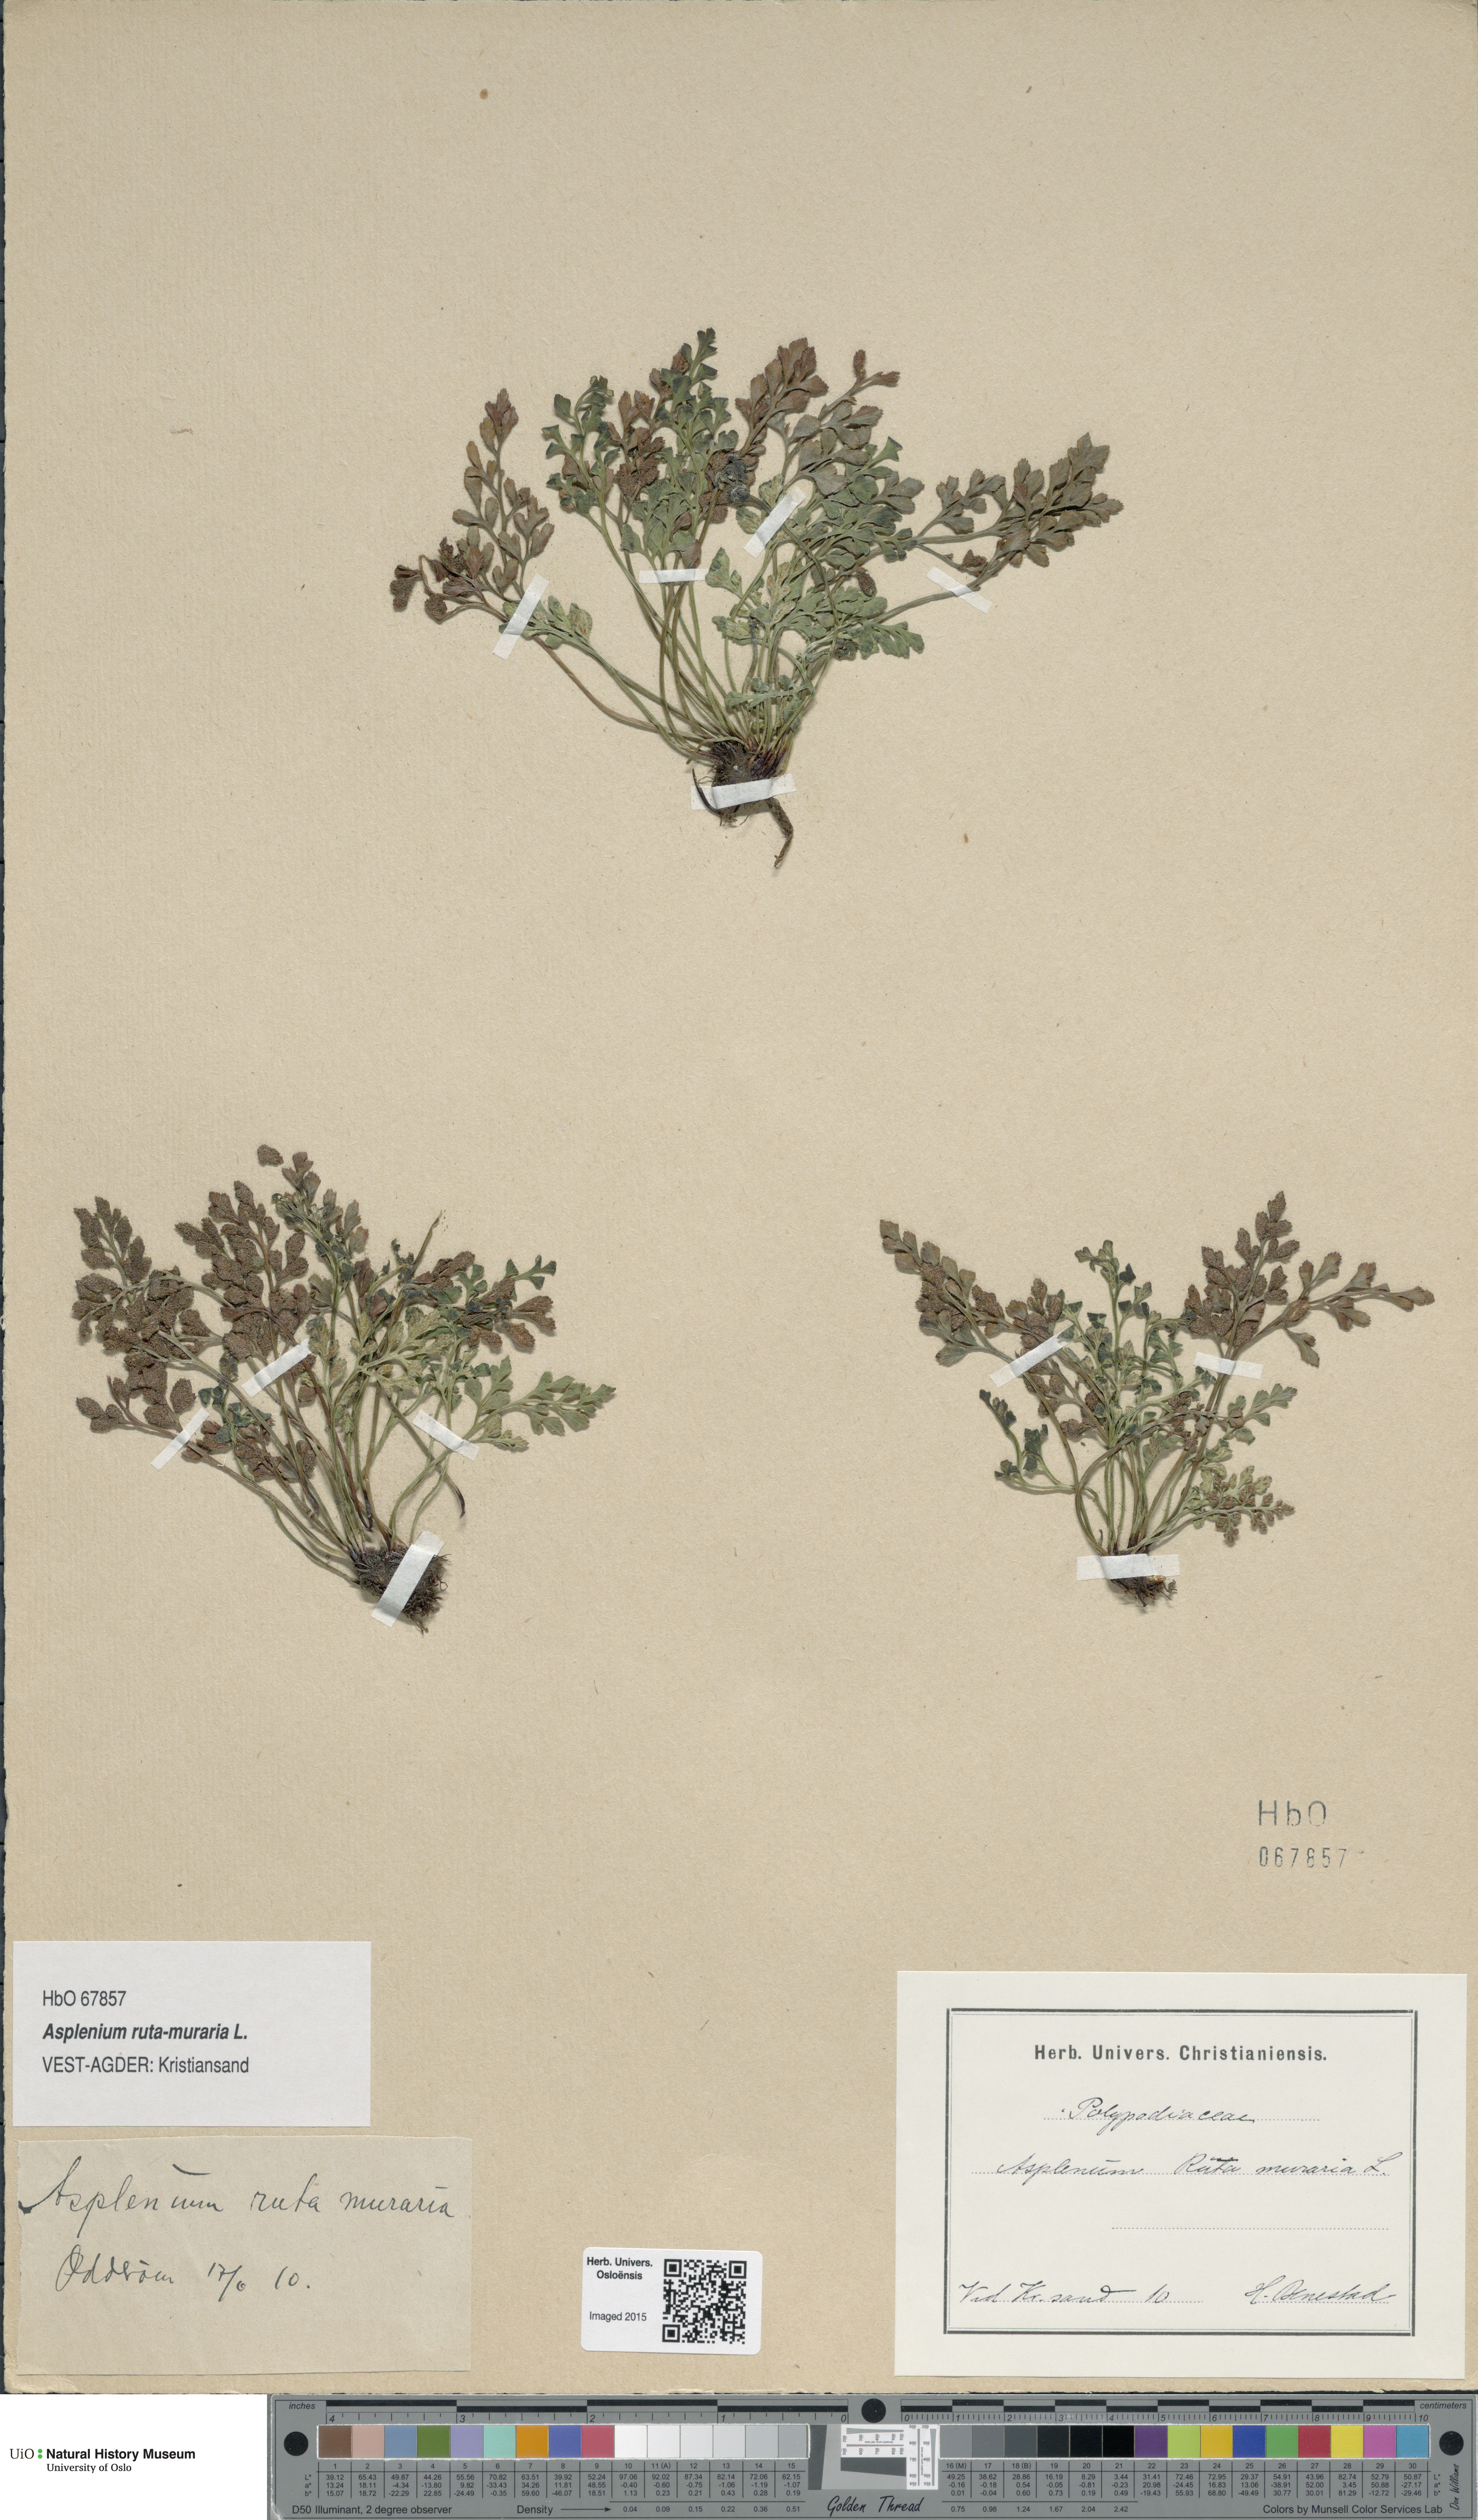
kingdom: Plantae
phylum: Tracheophyta
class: Polypodiopsida
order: Polypodiales
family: Aspleniaceae
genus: Asplenium
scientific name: Asplenium ruta-muraria
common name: Wall-rue
